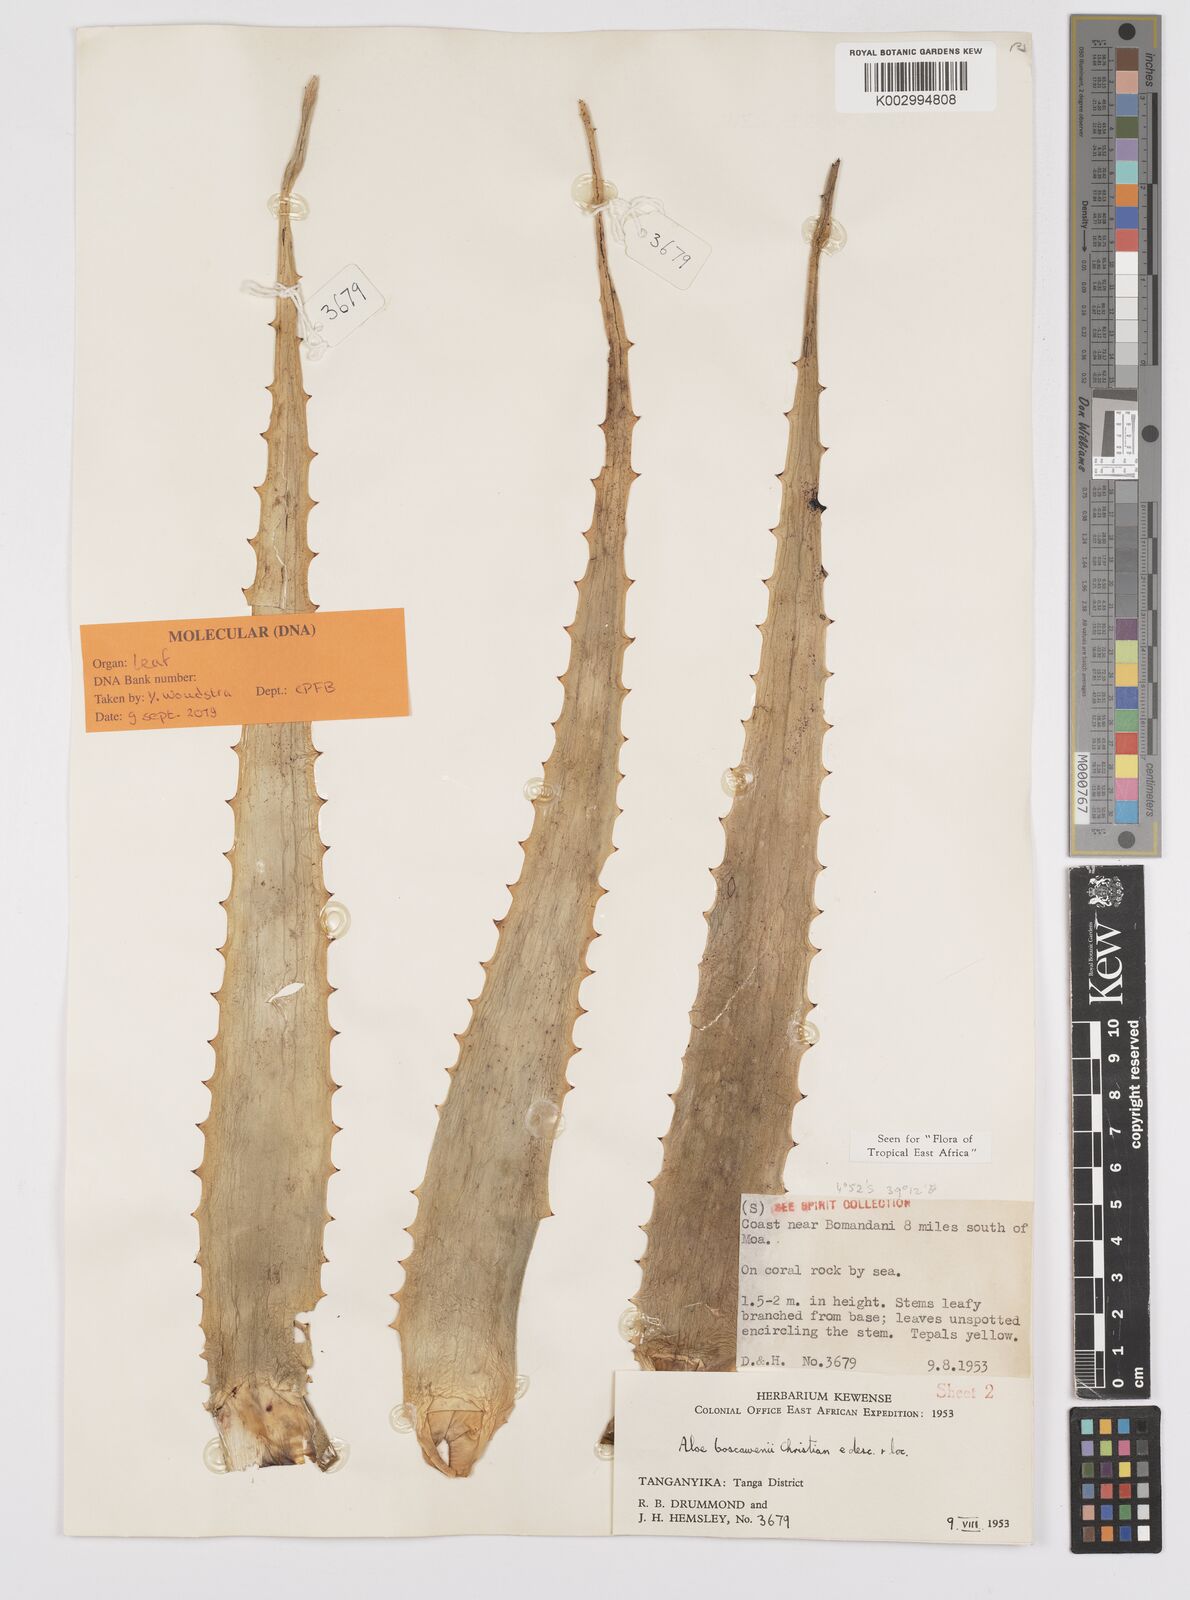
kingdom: Plantae
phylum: Tracheophyta
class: Liliopsida
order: Asparagales
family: Asphodelaceae
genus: Aloe
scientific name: Aloe boscawenii
